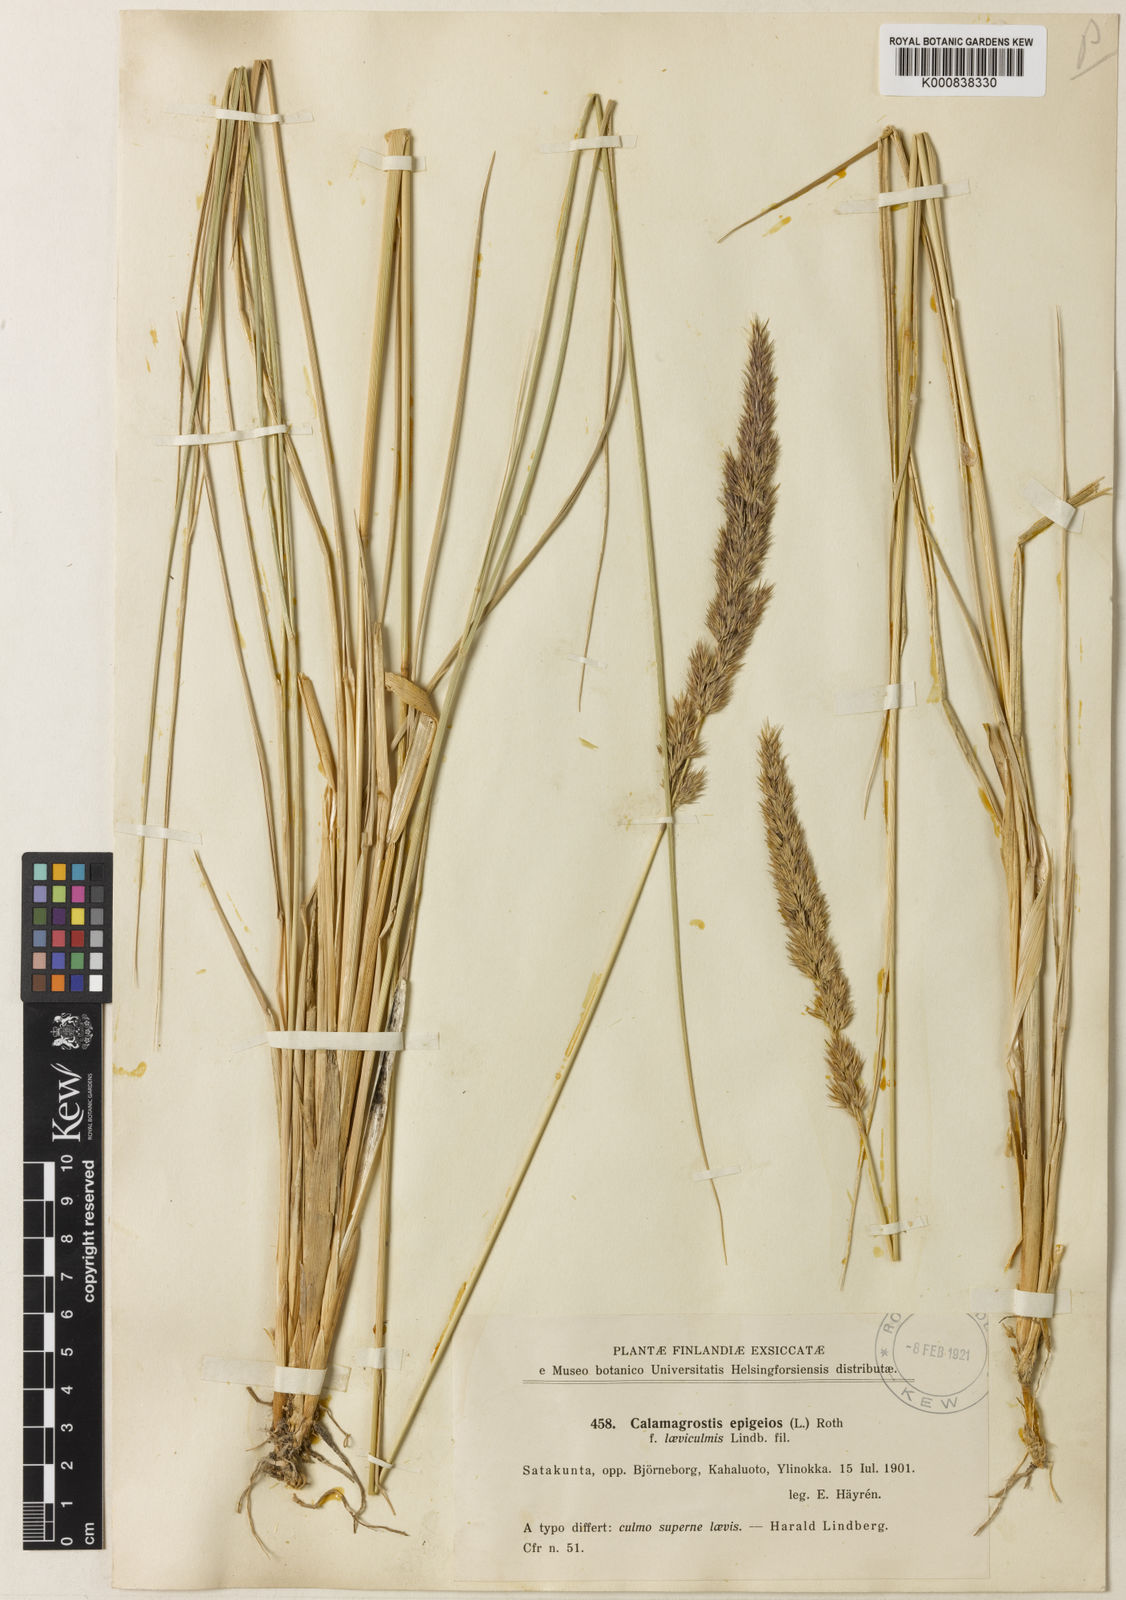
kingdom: Plantae
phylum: Tracheophyta
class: Liliopsida
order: Poales
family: Poaceae
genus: Calamagrostis
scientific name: Calamagrostis epigejos
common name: Wood small-reed
